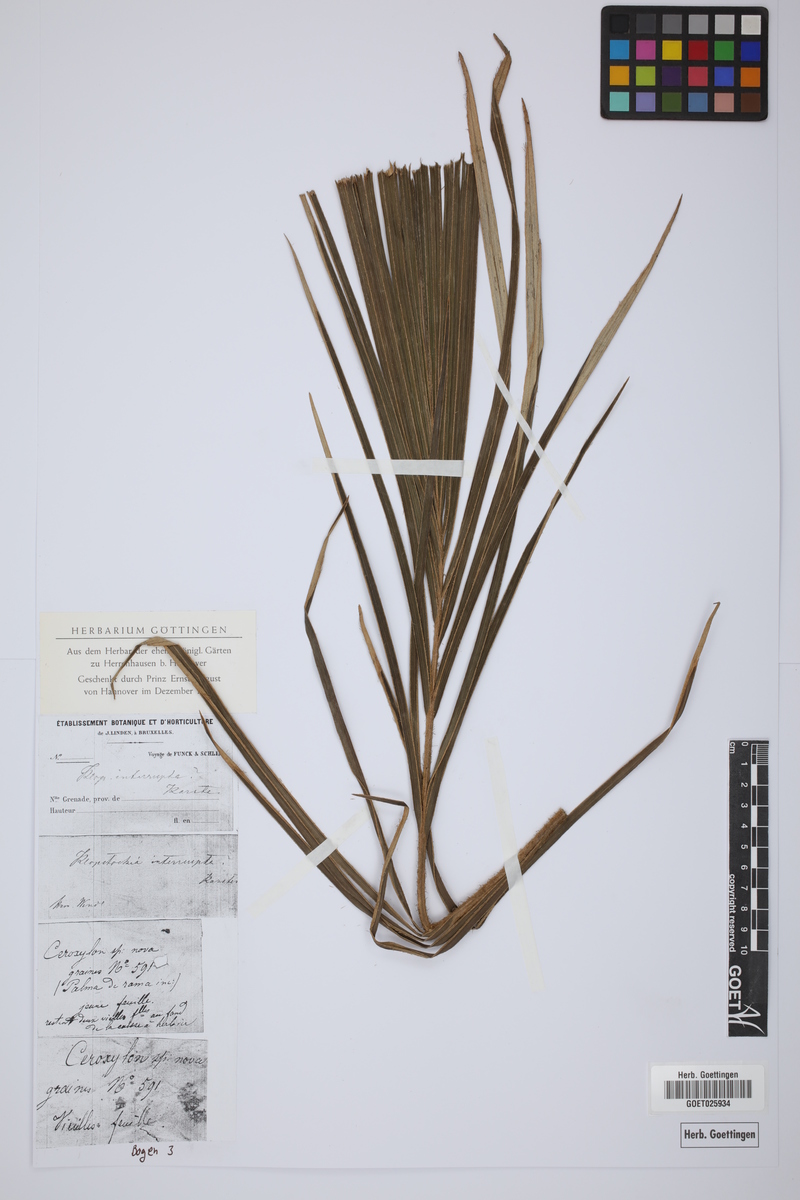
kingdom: Plantae
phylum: Tracheophyta
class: Liliopsida
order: Arecales
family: Arecaceae
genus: Ceroxylon
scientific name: Ceroxylon ceriferum
